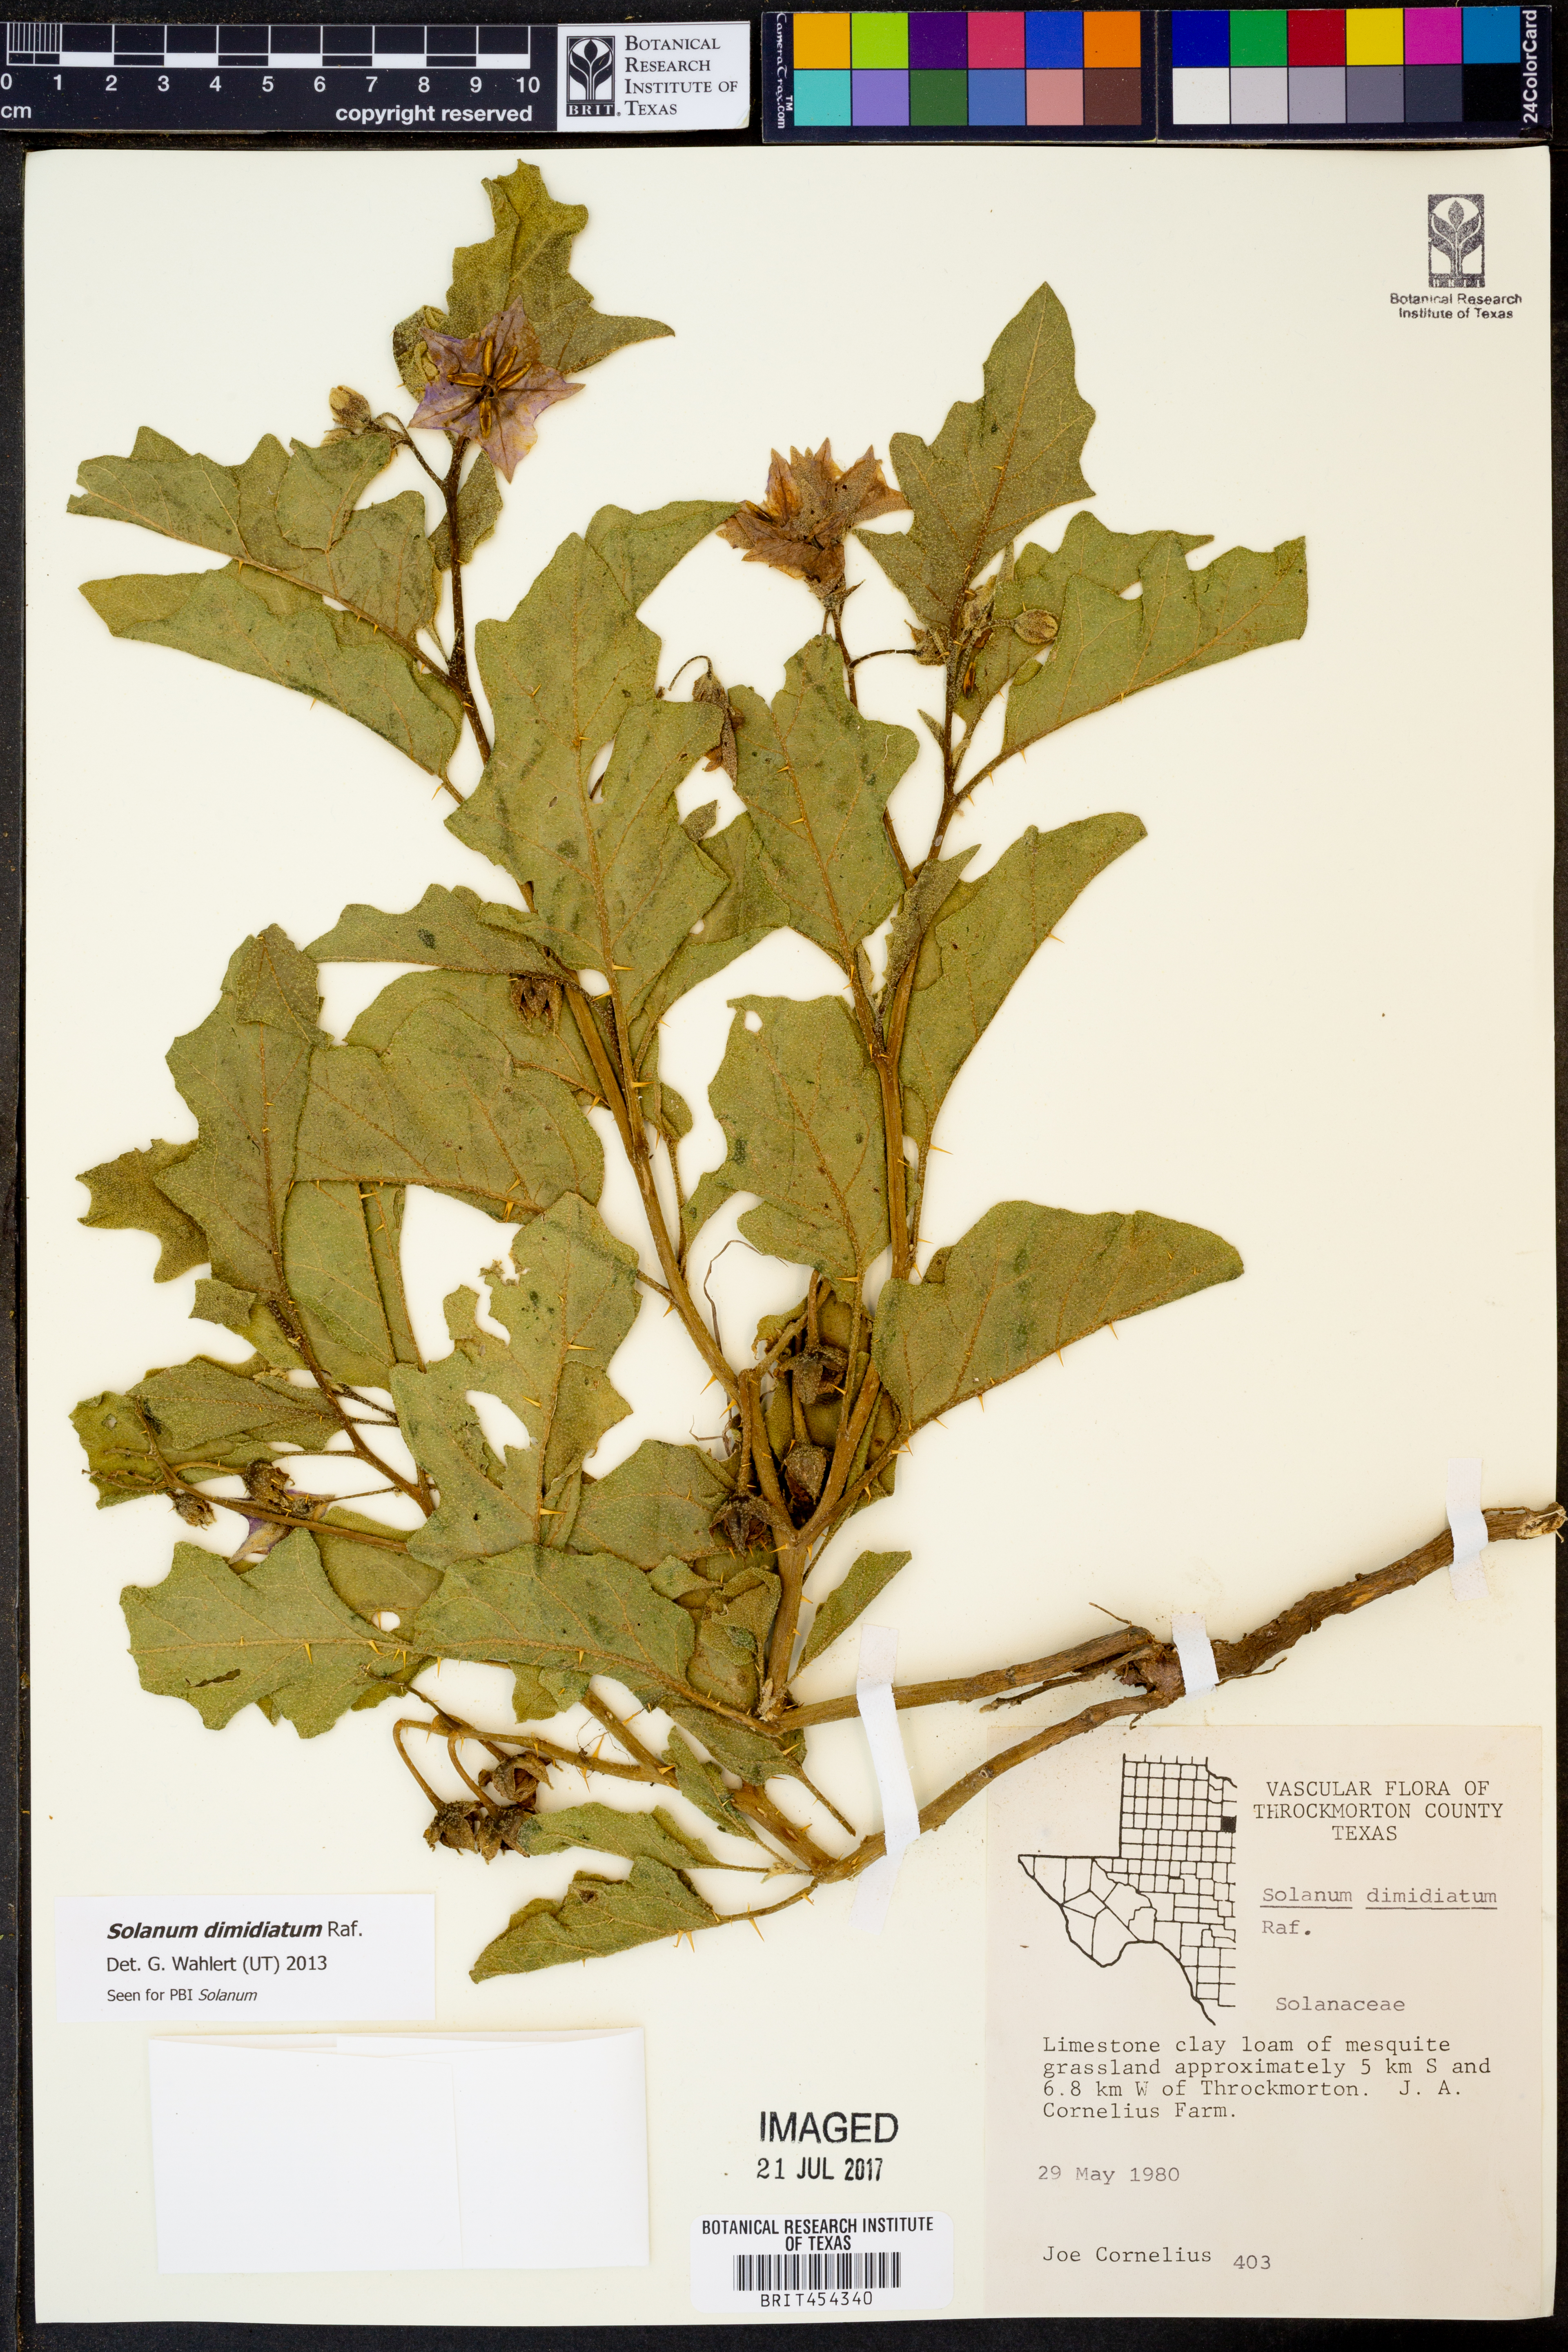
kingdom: Plantae
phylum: Tracheophyta
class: Magnoliopsida
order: Solanales
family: Solanaceae
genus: Solanum
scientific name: Solanum dimidiatum
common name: Carolina horse-nettle
